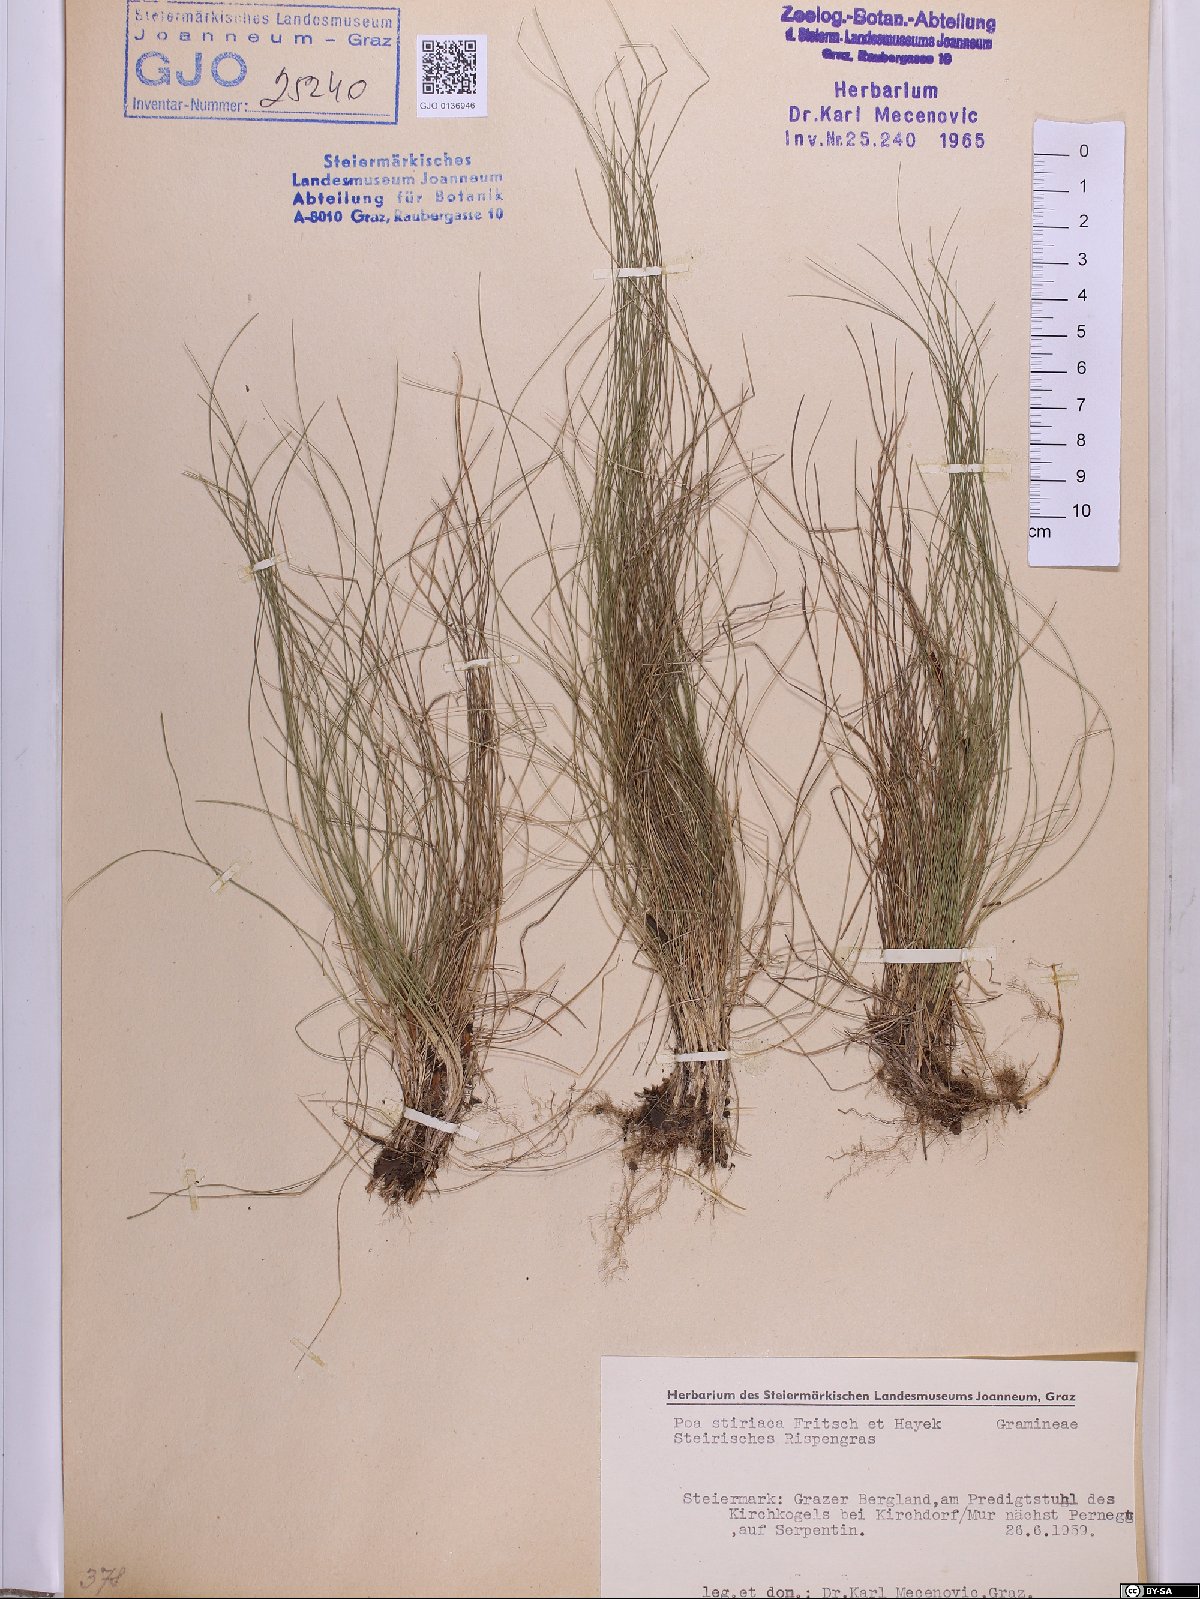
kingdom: Plantae
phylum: Tracheophyta
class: Liliopsida
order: Poales
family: Poaceae
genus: Poa
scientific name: Poa stiriaca
